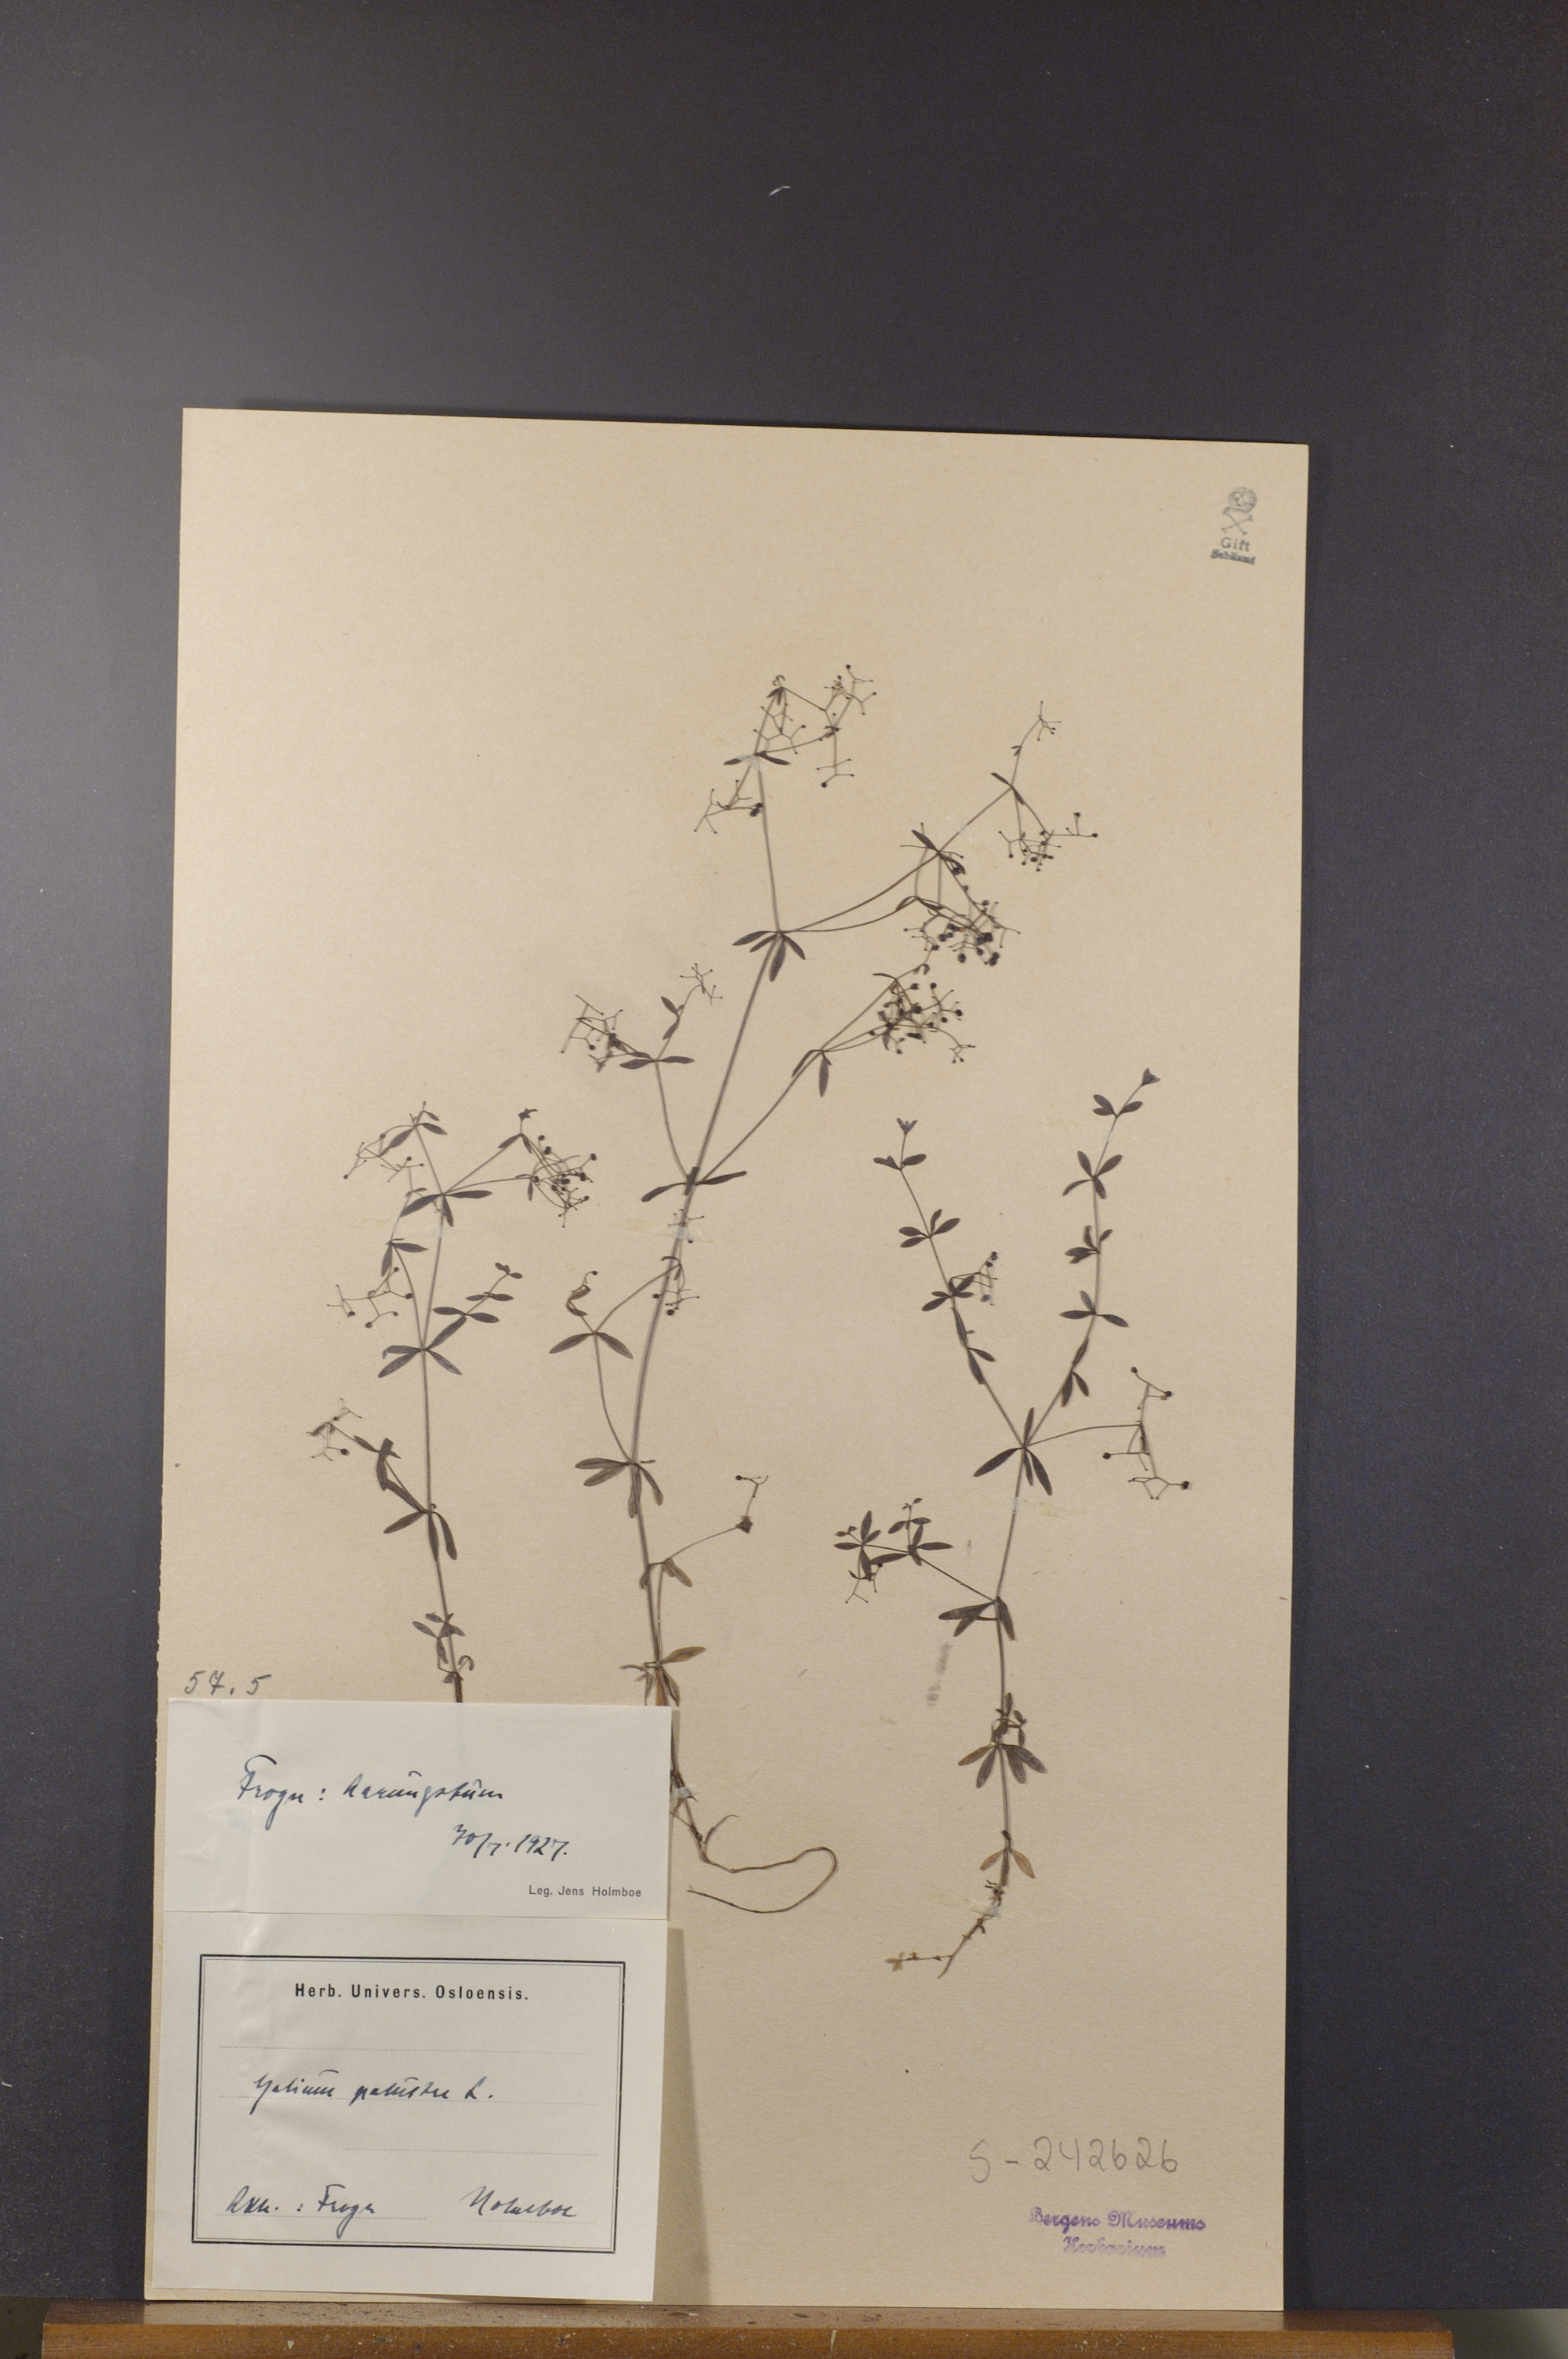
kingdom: Plantae
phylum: Tracheophyta
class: Magnoliopsida
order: Gentianales
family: Rubiaceae
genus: Galium
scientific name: Galium palustre
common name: Common marsh-bedstraw
